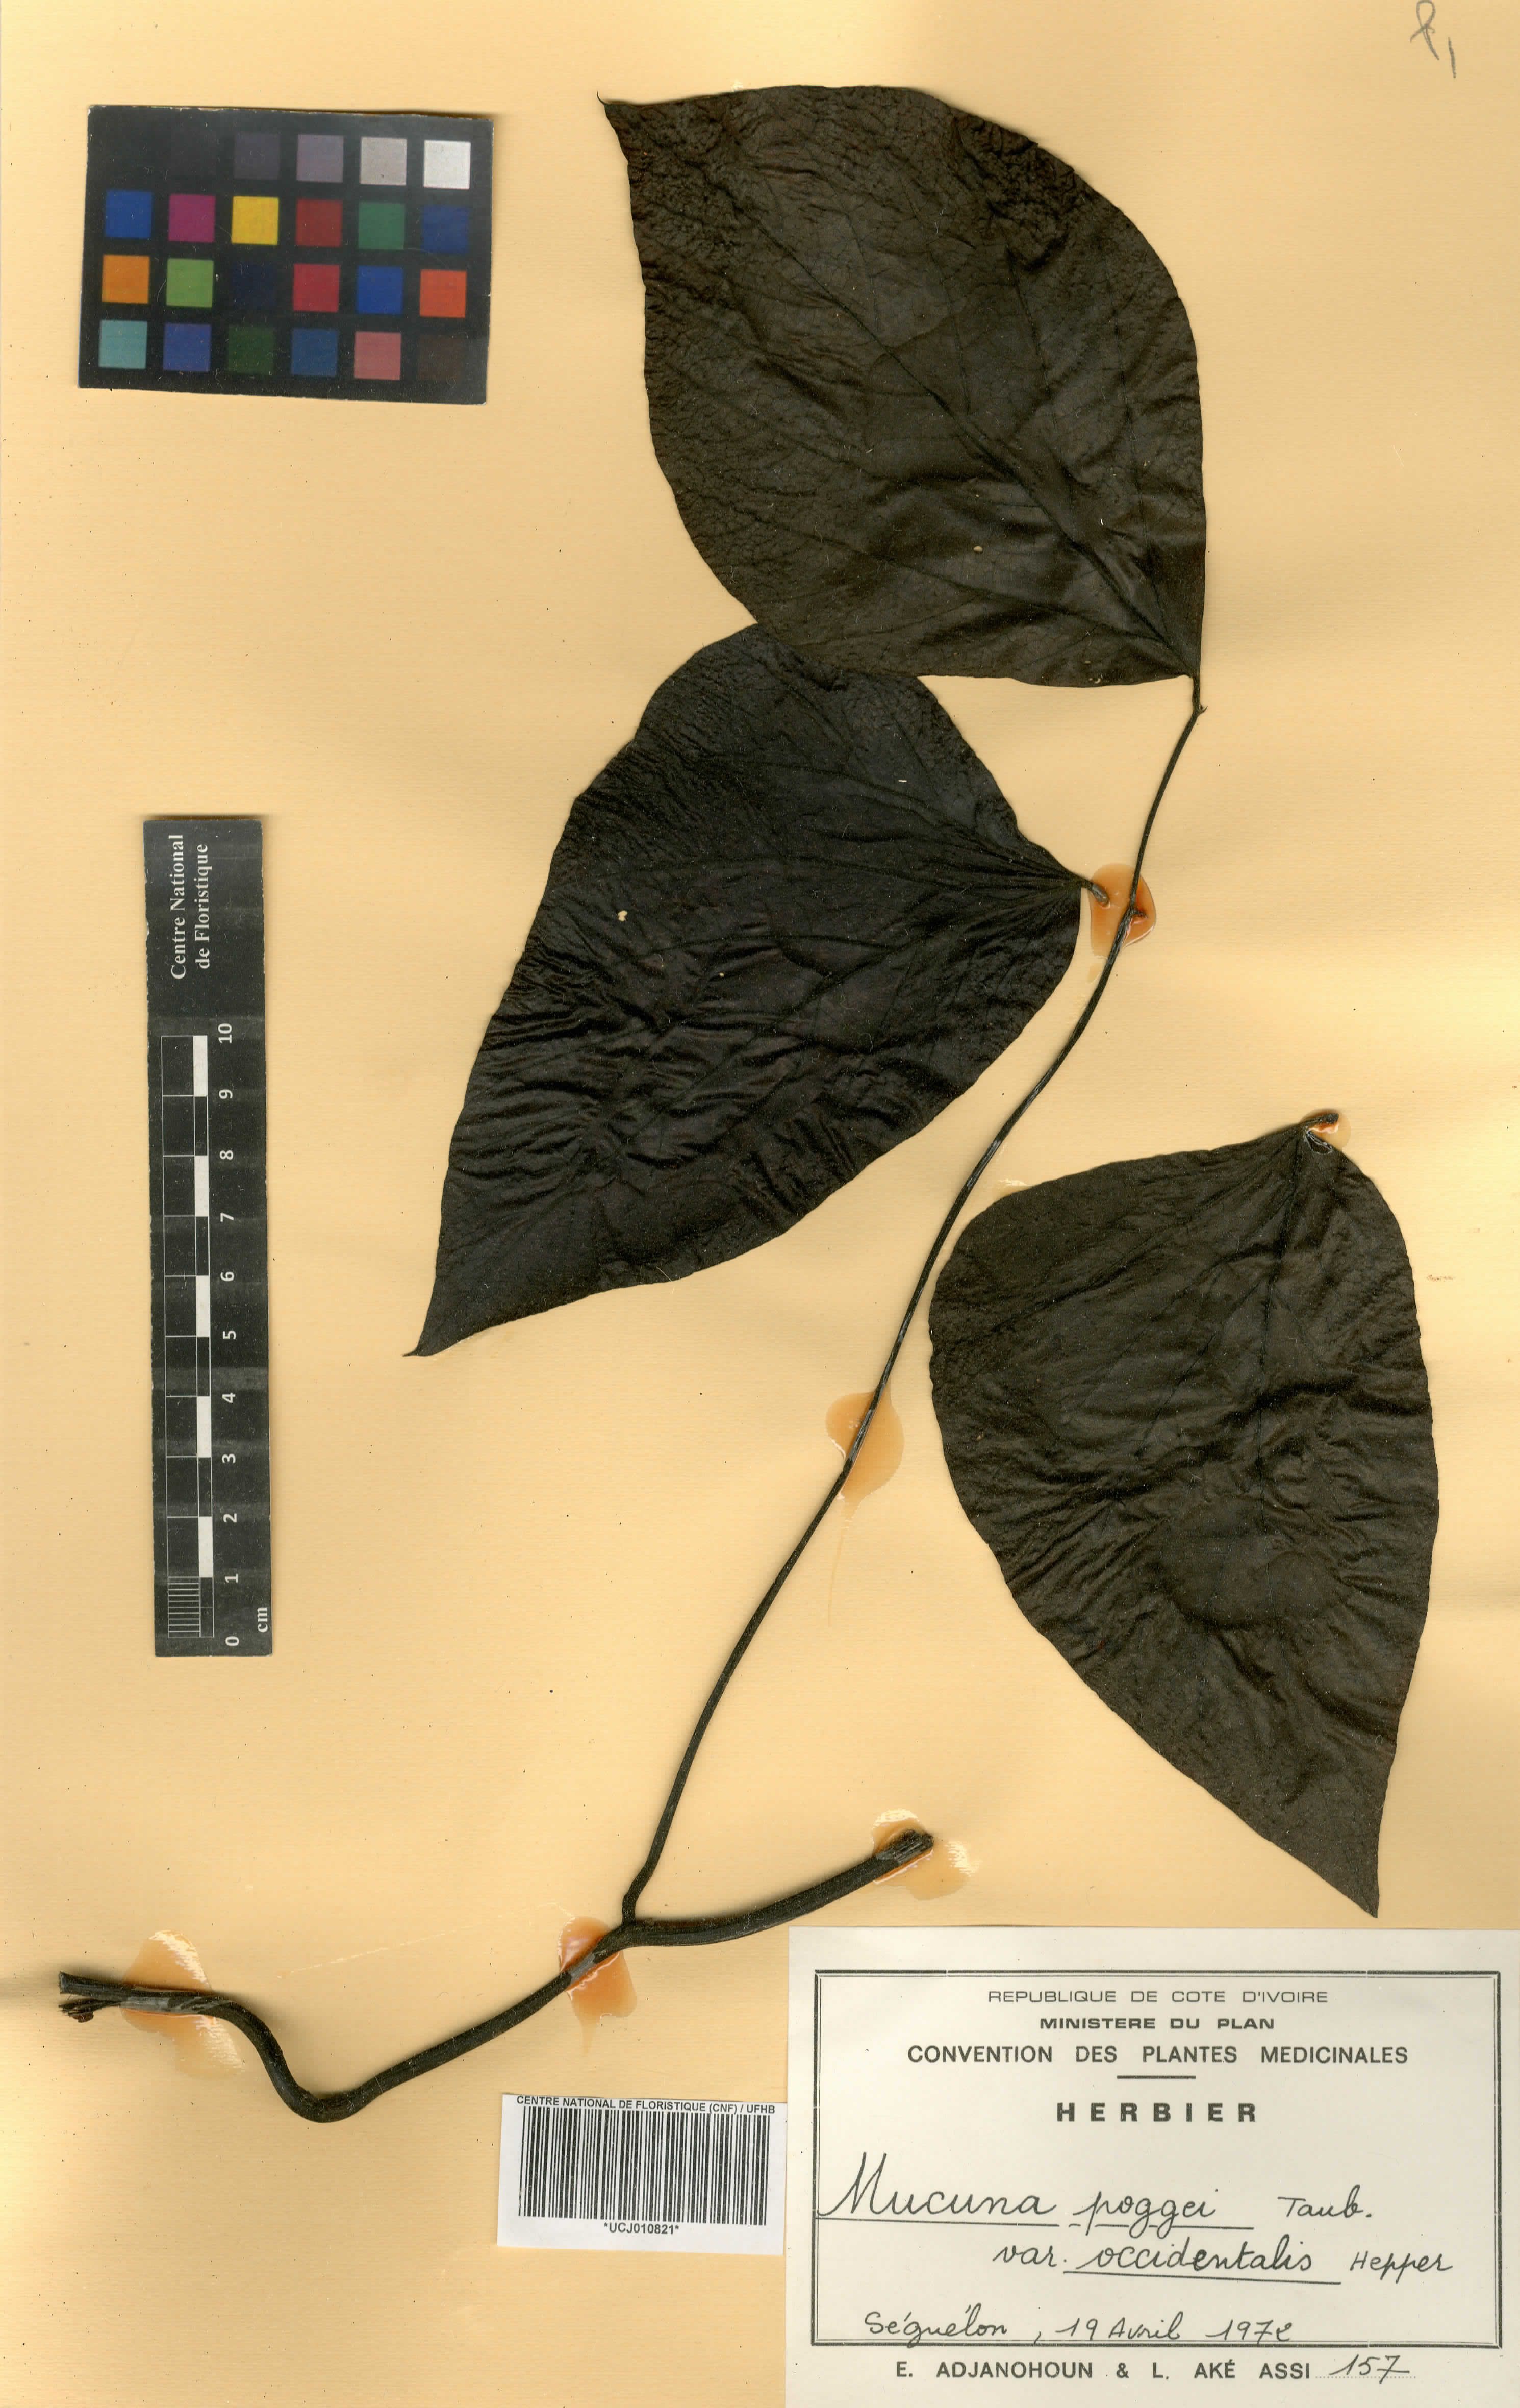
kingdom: Plantae
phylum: Tracheophyta
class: Magnoliopsida
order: Fabales
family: Fabaceae
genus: Mucuna
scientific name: Mucuna occidentalis
